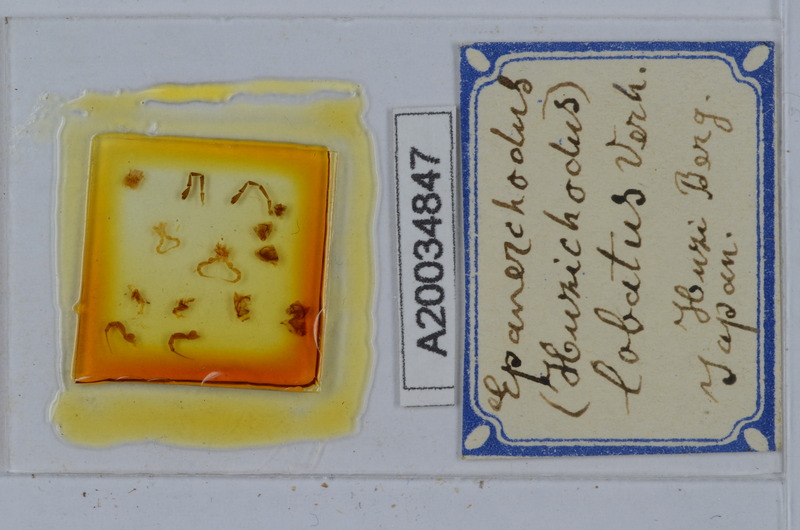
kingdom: Animalia
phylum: Arthropoda
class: Diplopoda
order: Polydesmida
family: Polydesmidae
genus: Huzichodus
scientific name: Huzichodus lobatus
